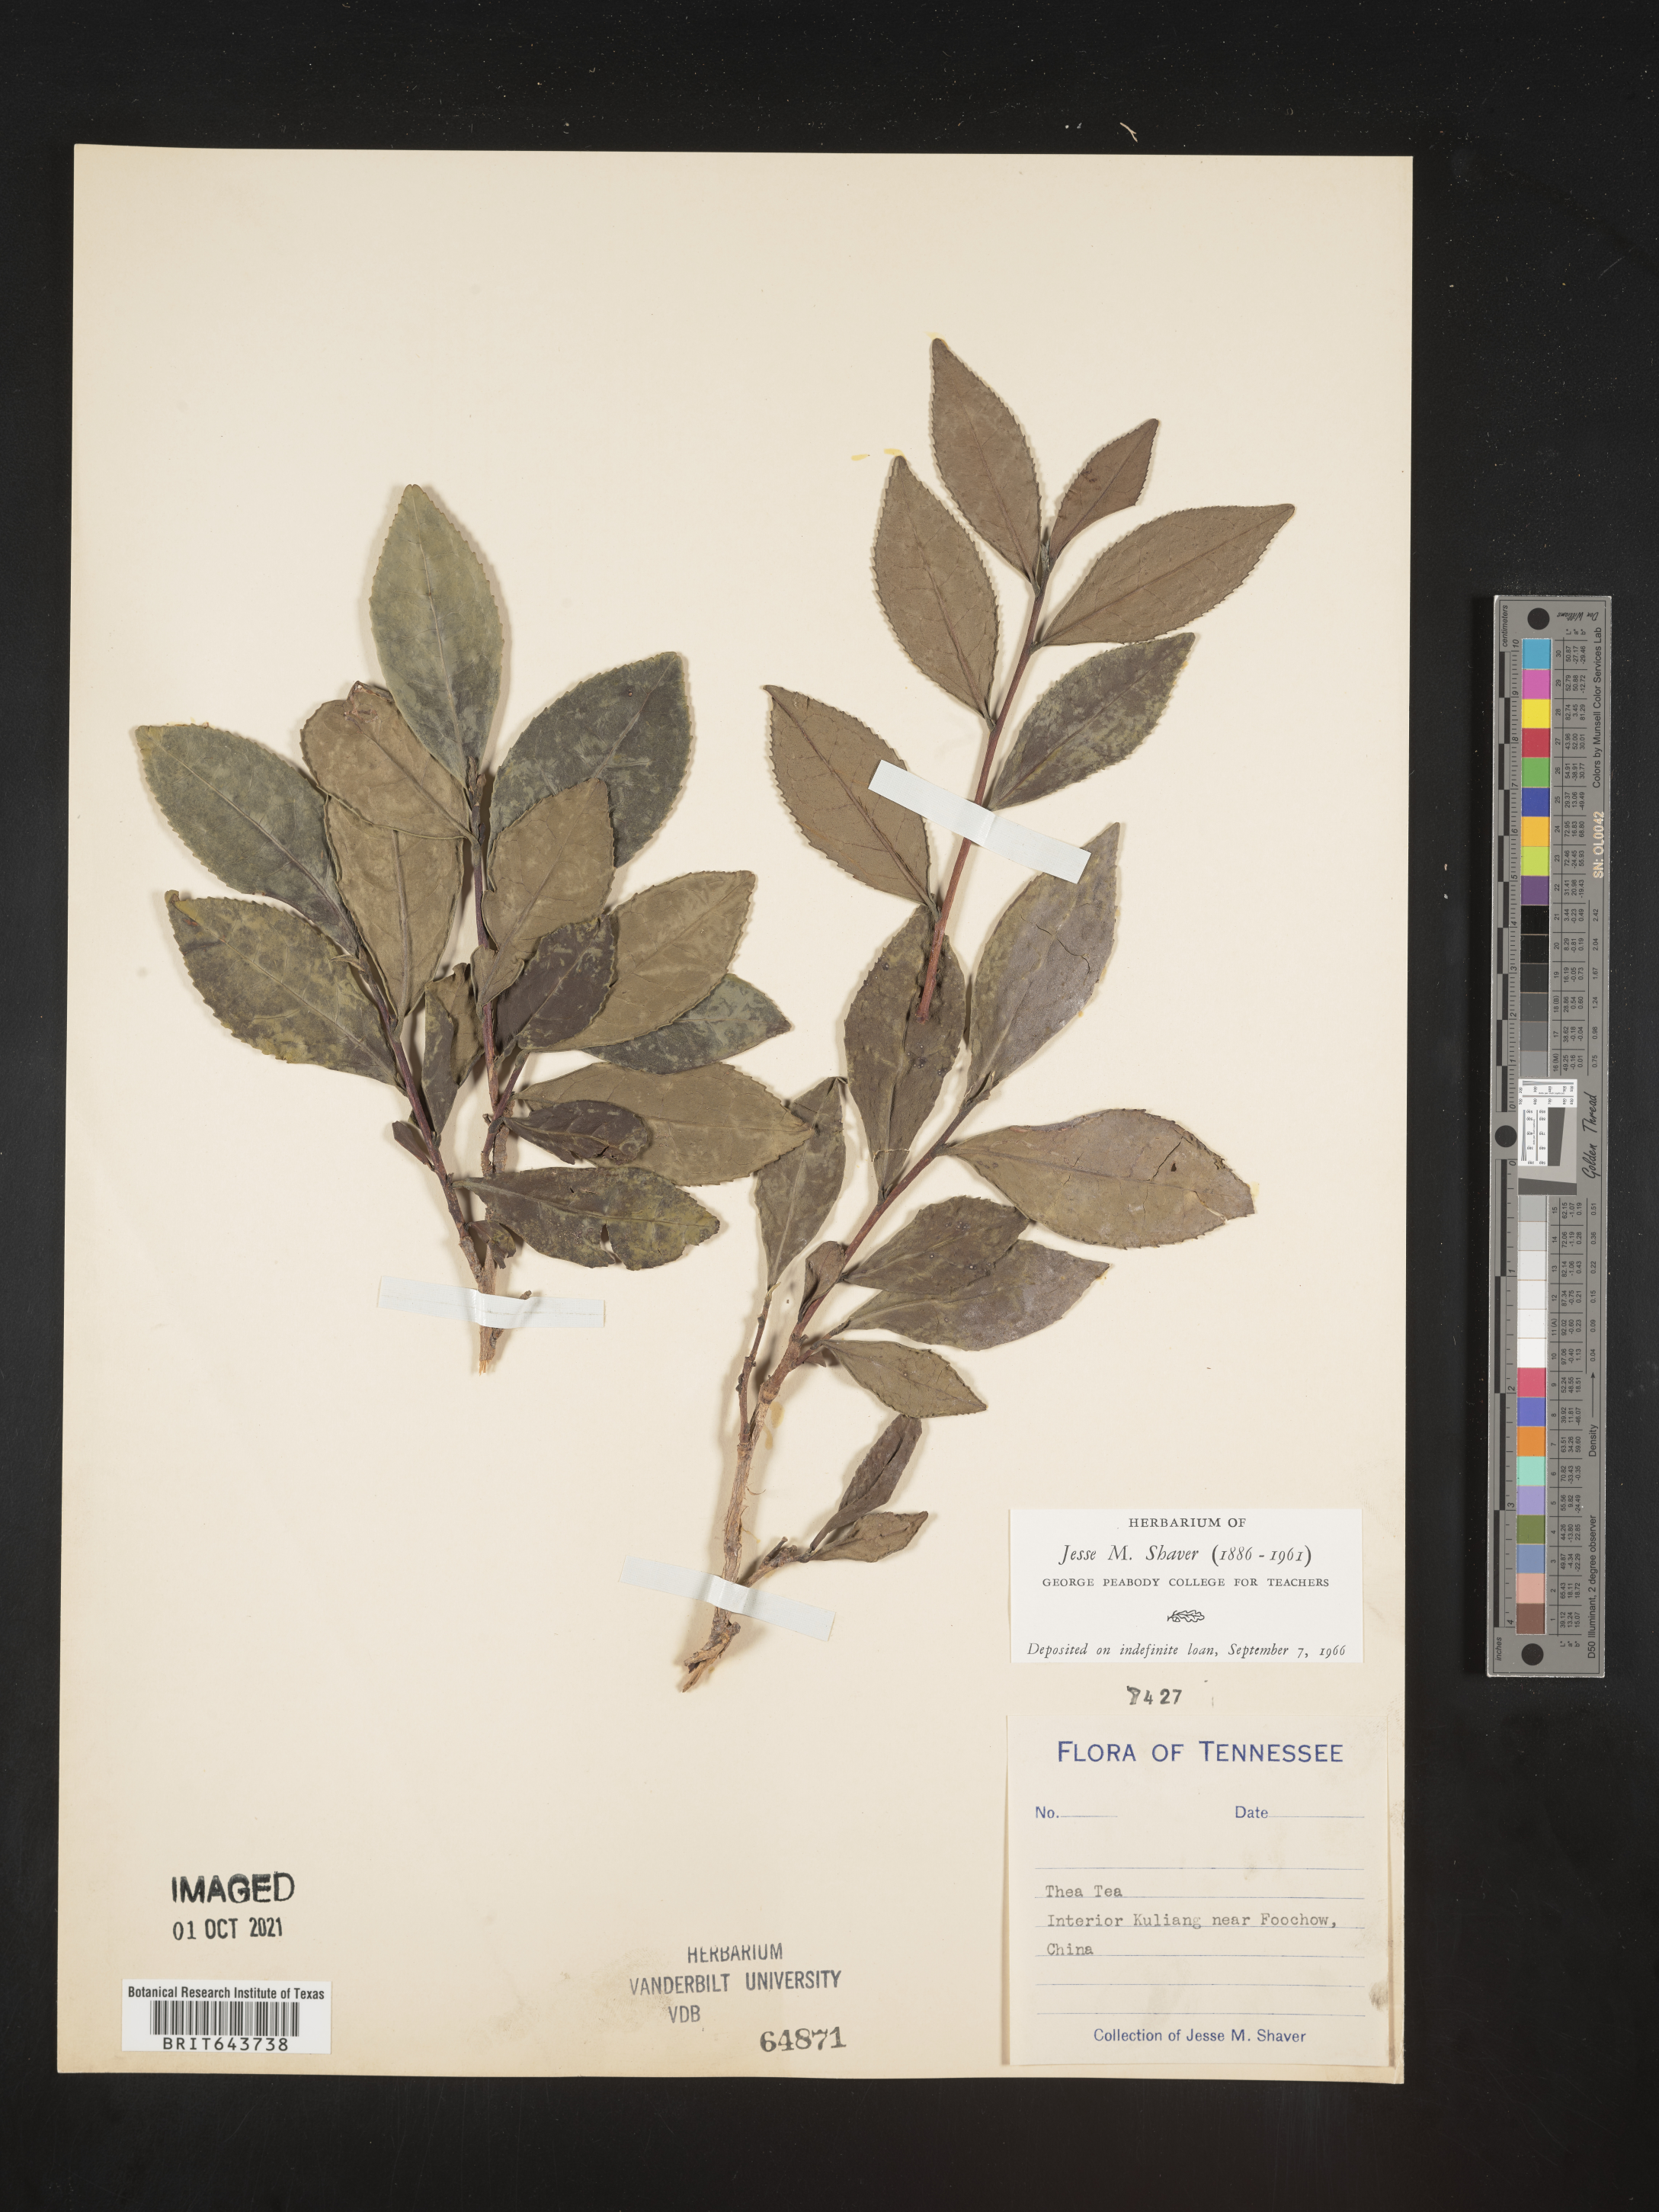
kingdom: Plantae
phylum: Tracheophyta
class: Magnoliopsida
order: Ericales
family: Theaceae
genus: Camellia
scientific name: Camellia
